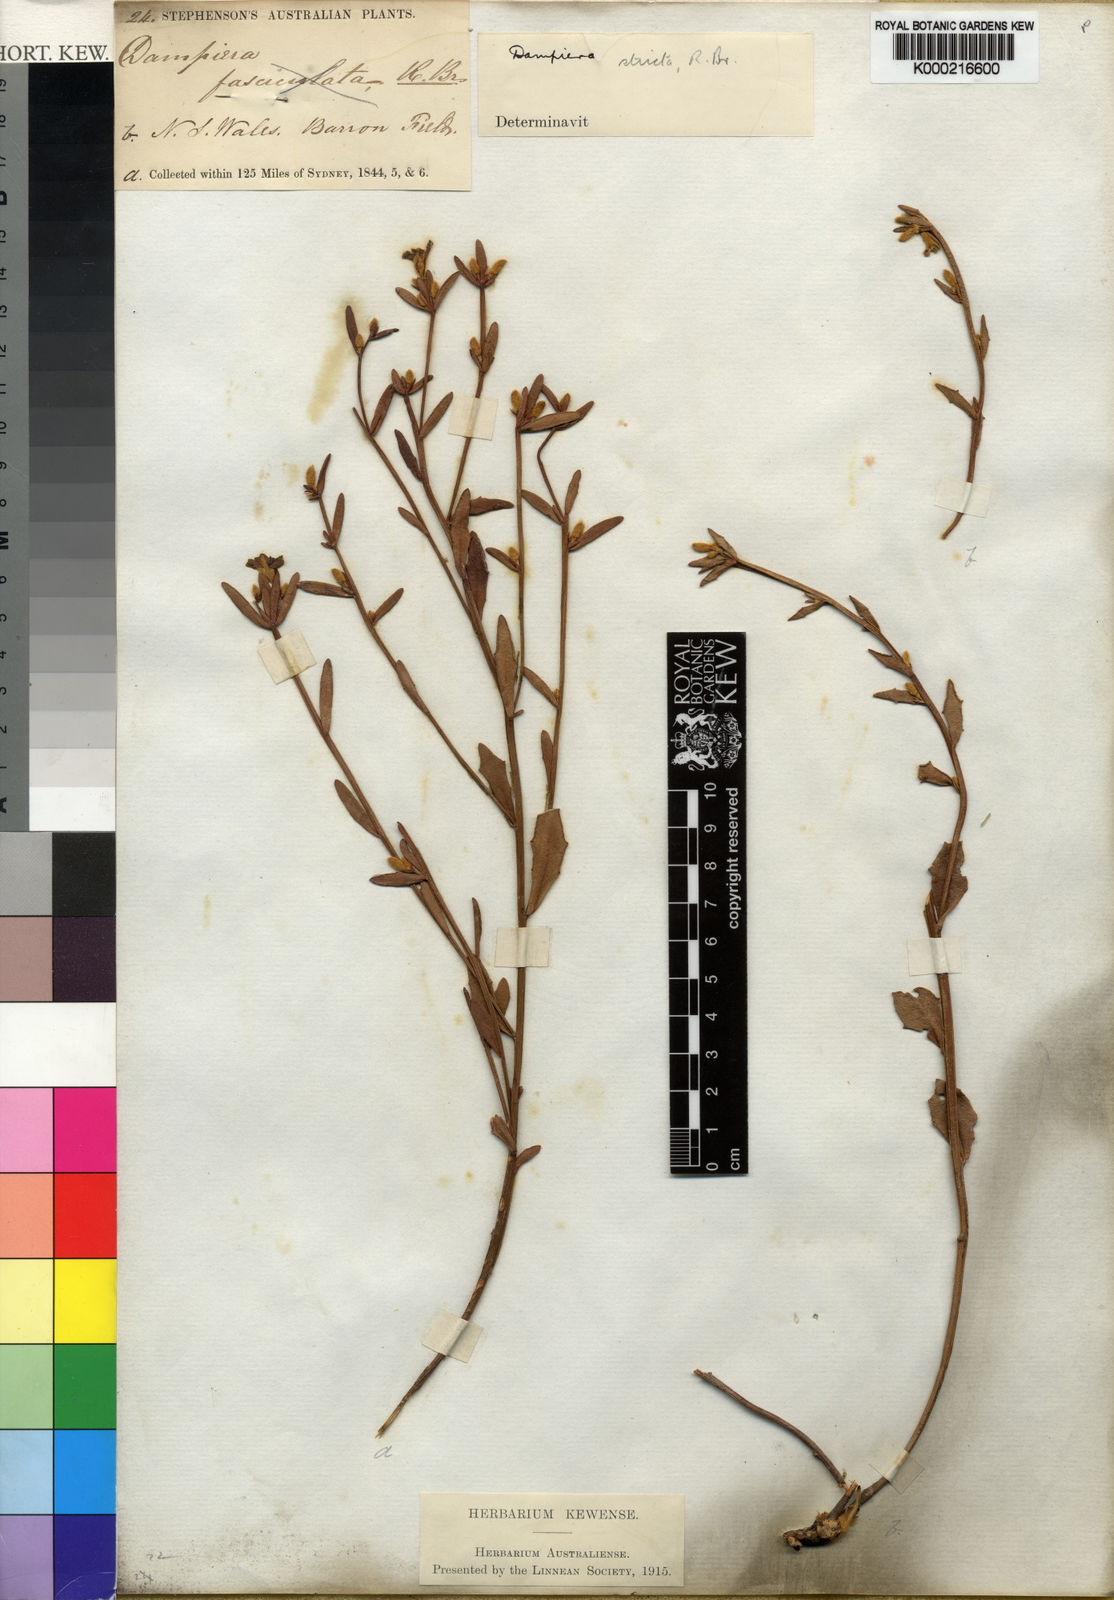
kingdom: Plantae
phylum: Tracheophyta
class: Magnoliopsida
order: Asterales
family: Goodeniaceae
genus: Dampiera
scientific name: Dampiera stricta
